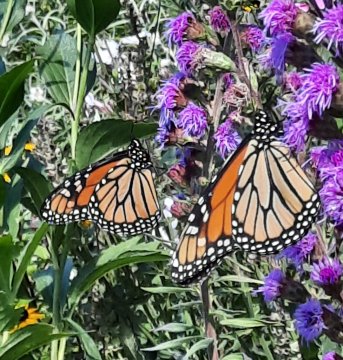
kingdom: Animalia
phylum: Arthropoda
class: Insecta
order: Lepidoptera
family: Nymphalidae
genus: Danaus
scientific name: Danaus plexippus
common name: Monarch
